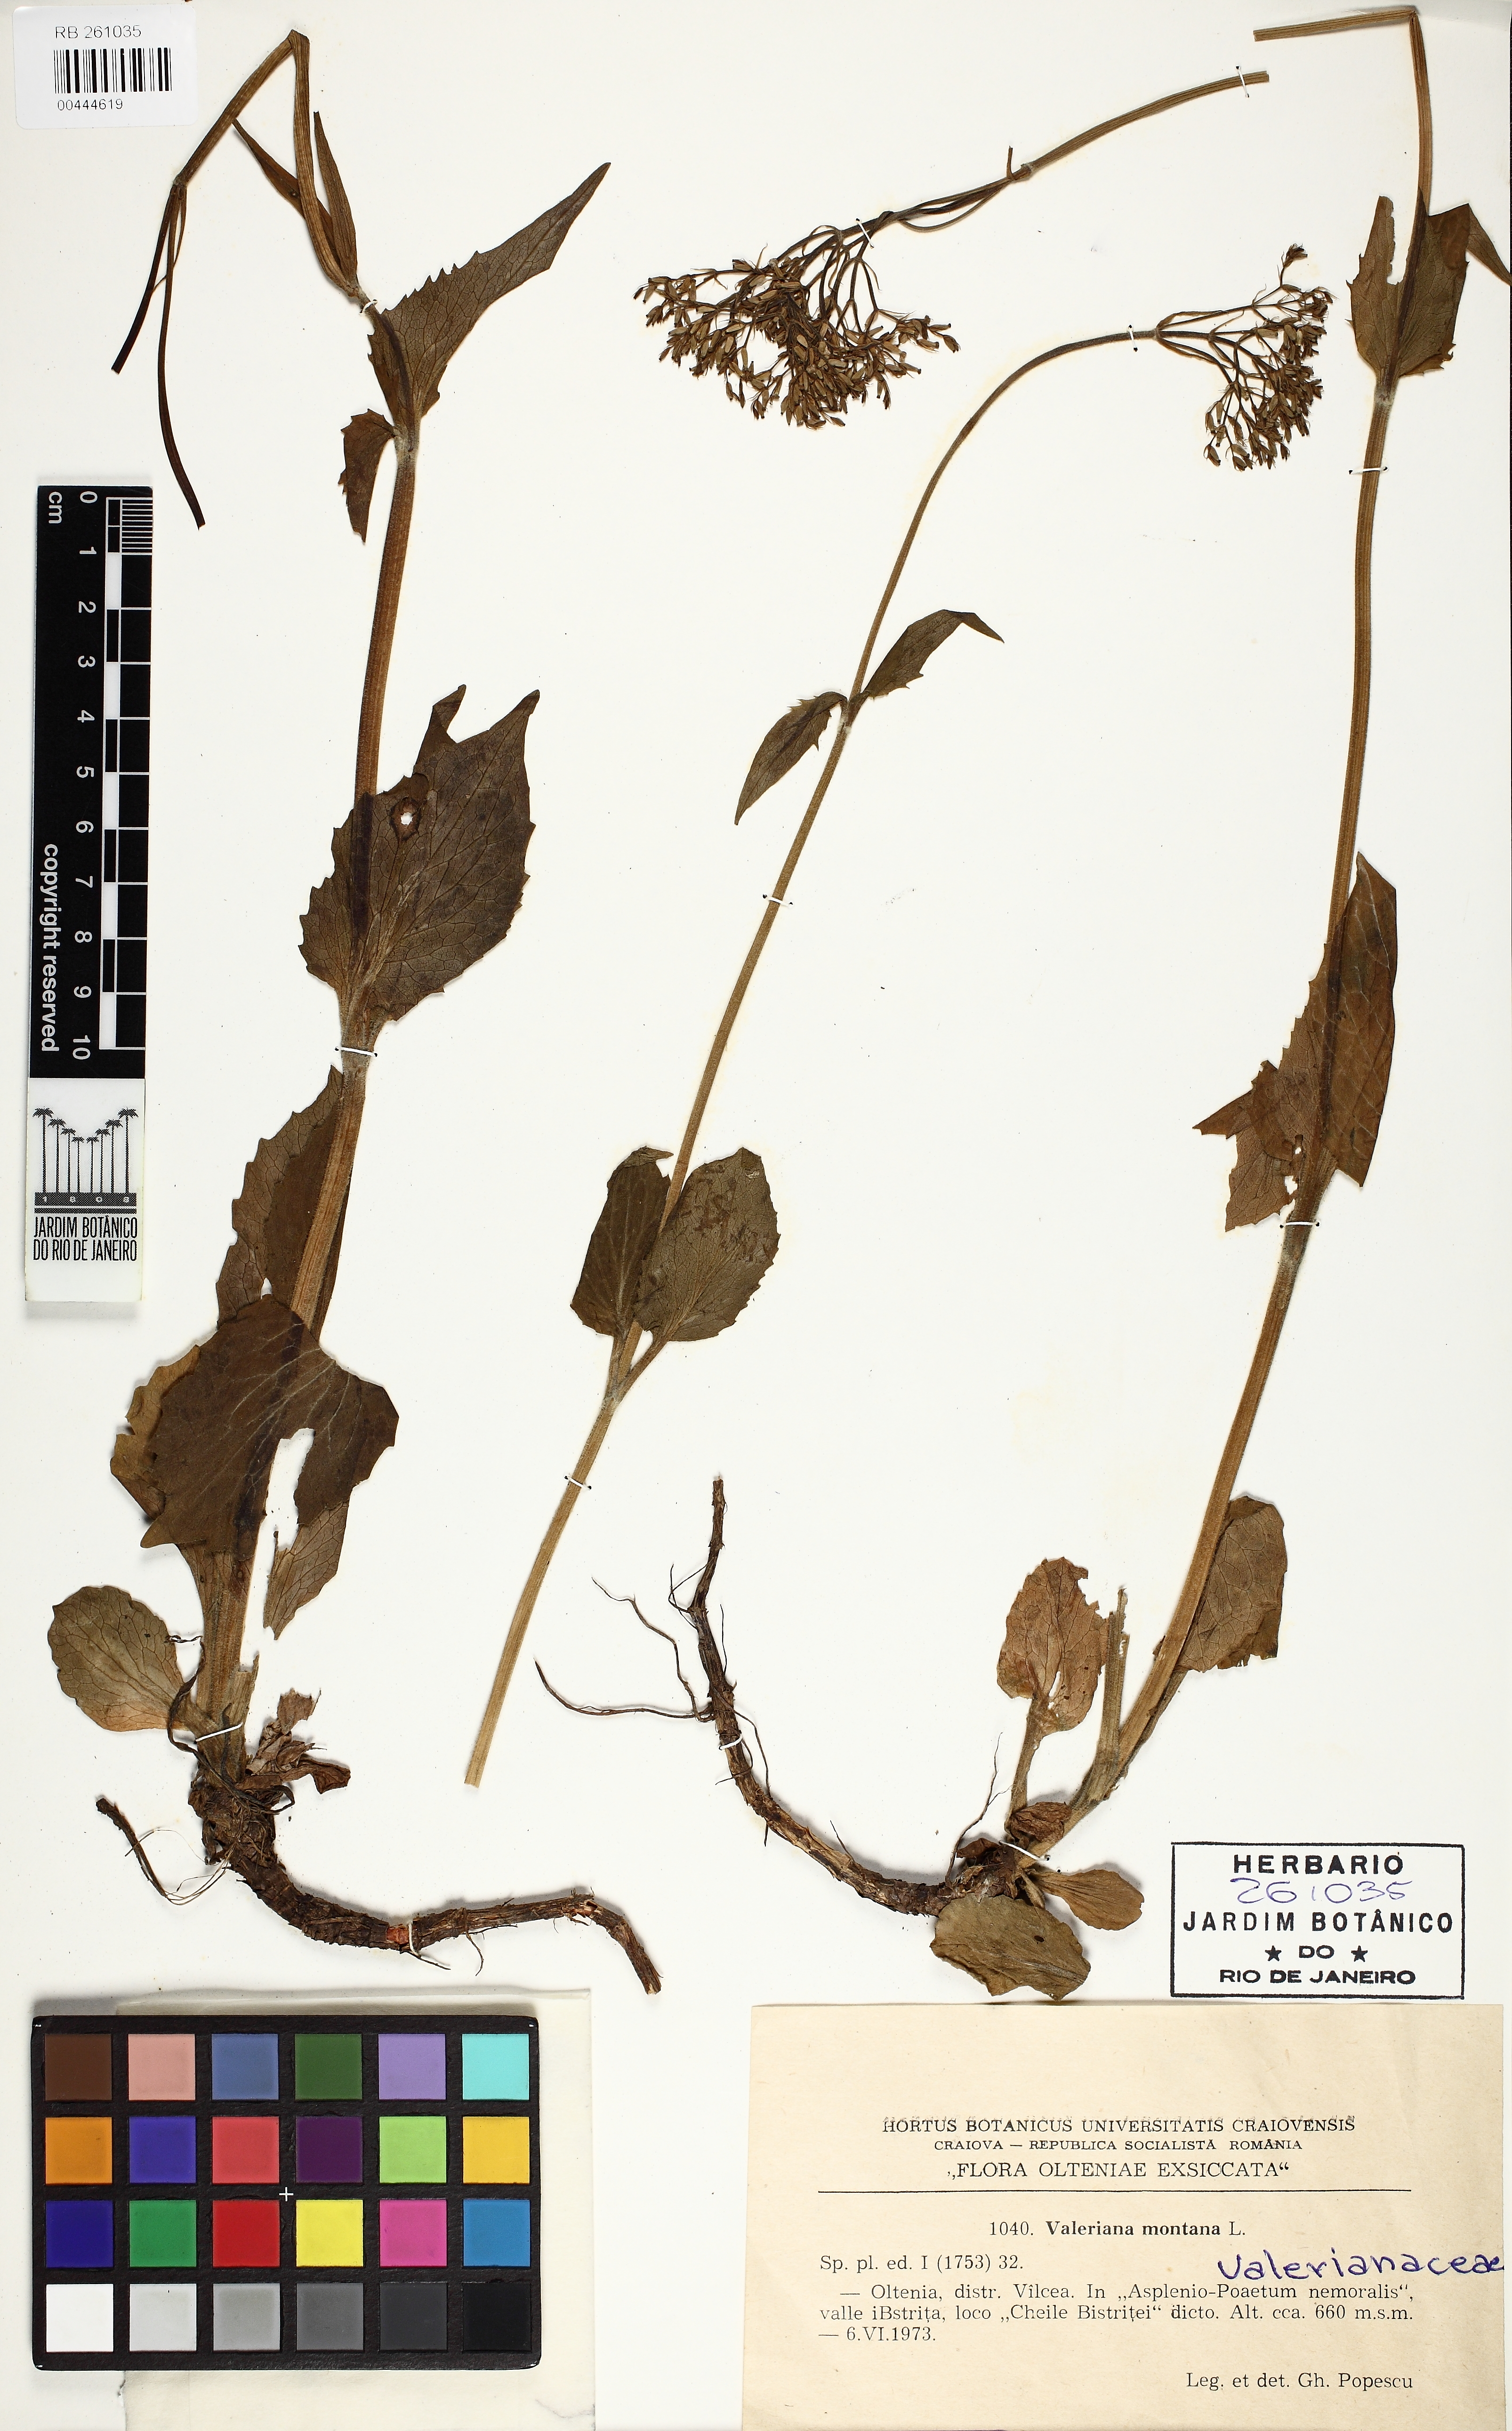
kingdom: Plantae
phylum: Tracheophyta
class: Magnoliopsida
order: Dipsacales
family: Caprifoliaceae
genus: Valeriana
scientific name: Valeriana dioica
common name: Marsh valerian
